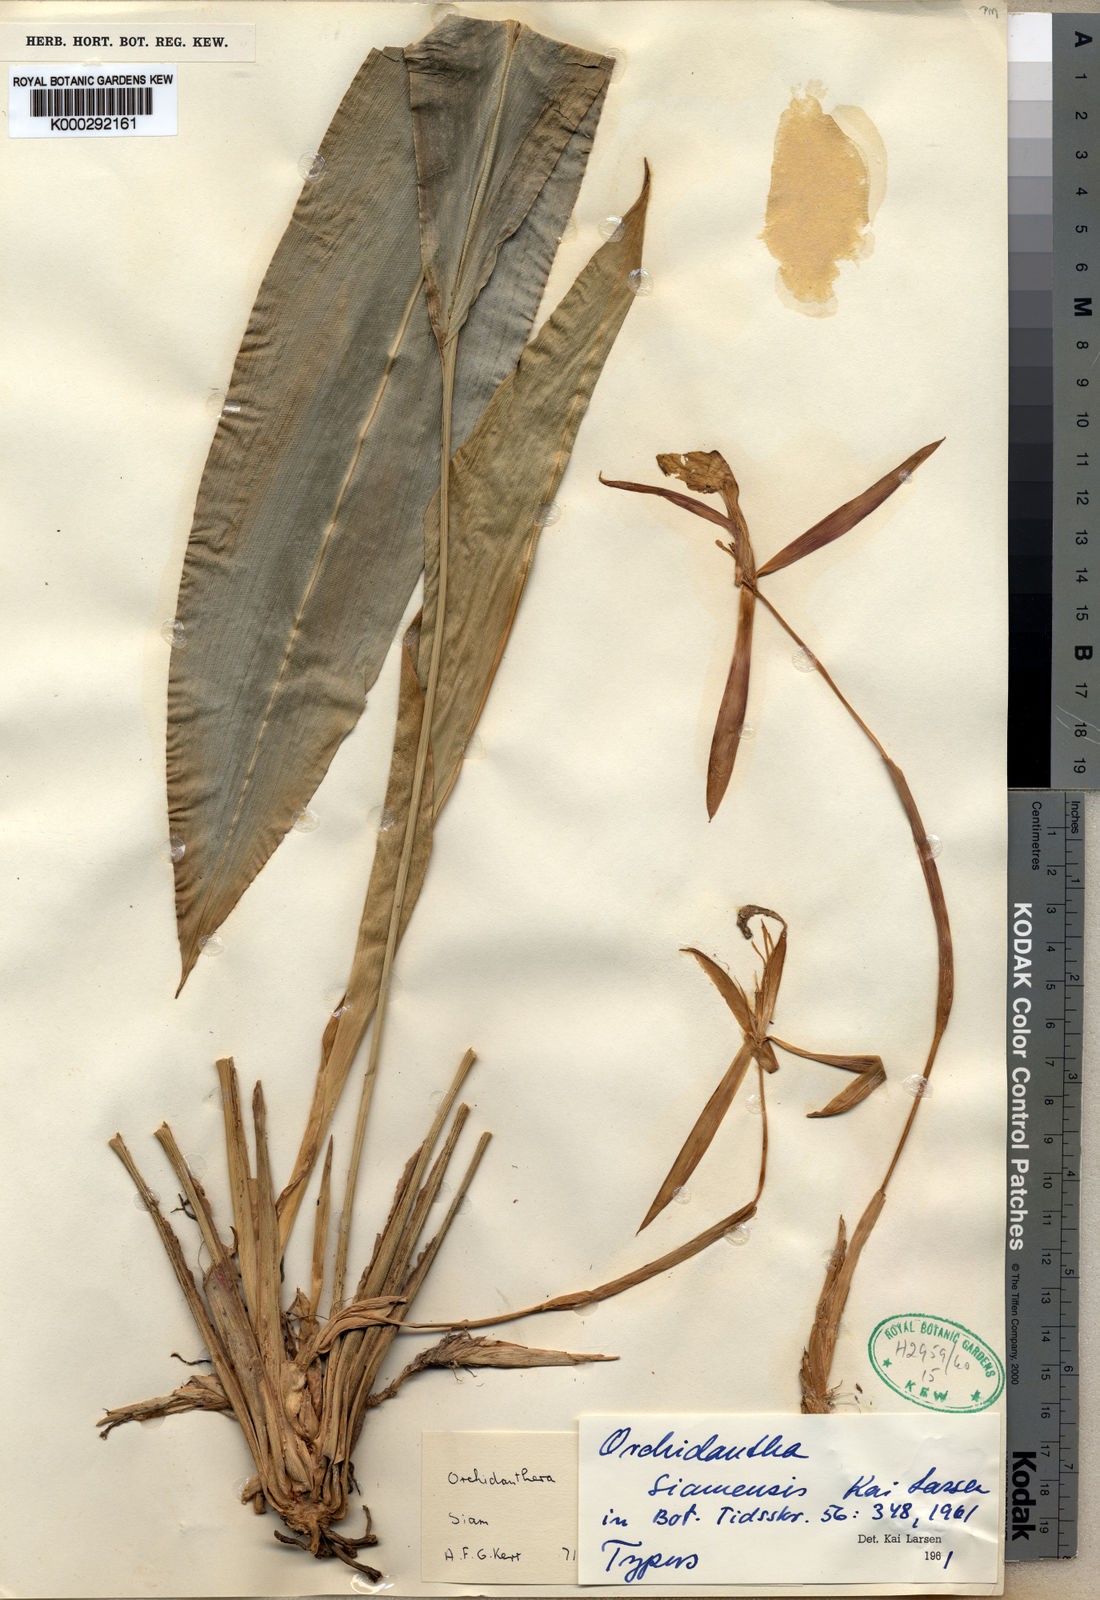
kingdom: Plantae
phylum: Tracheophyta
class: Liliopsida
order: Zingiberales
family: Lowiaceae
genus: Orchidantha
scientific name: Orchidantha siamensis
